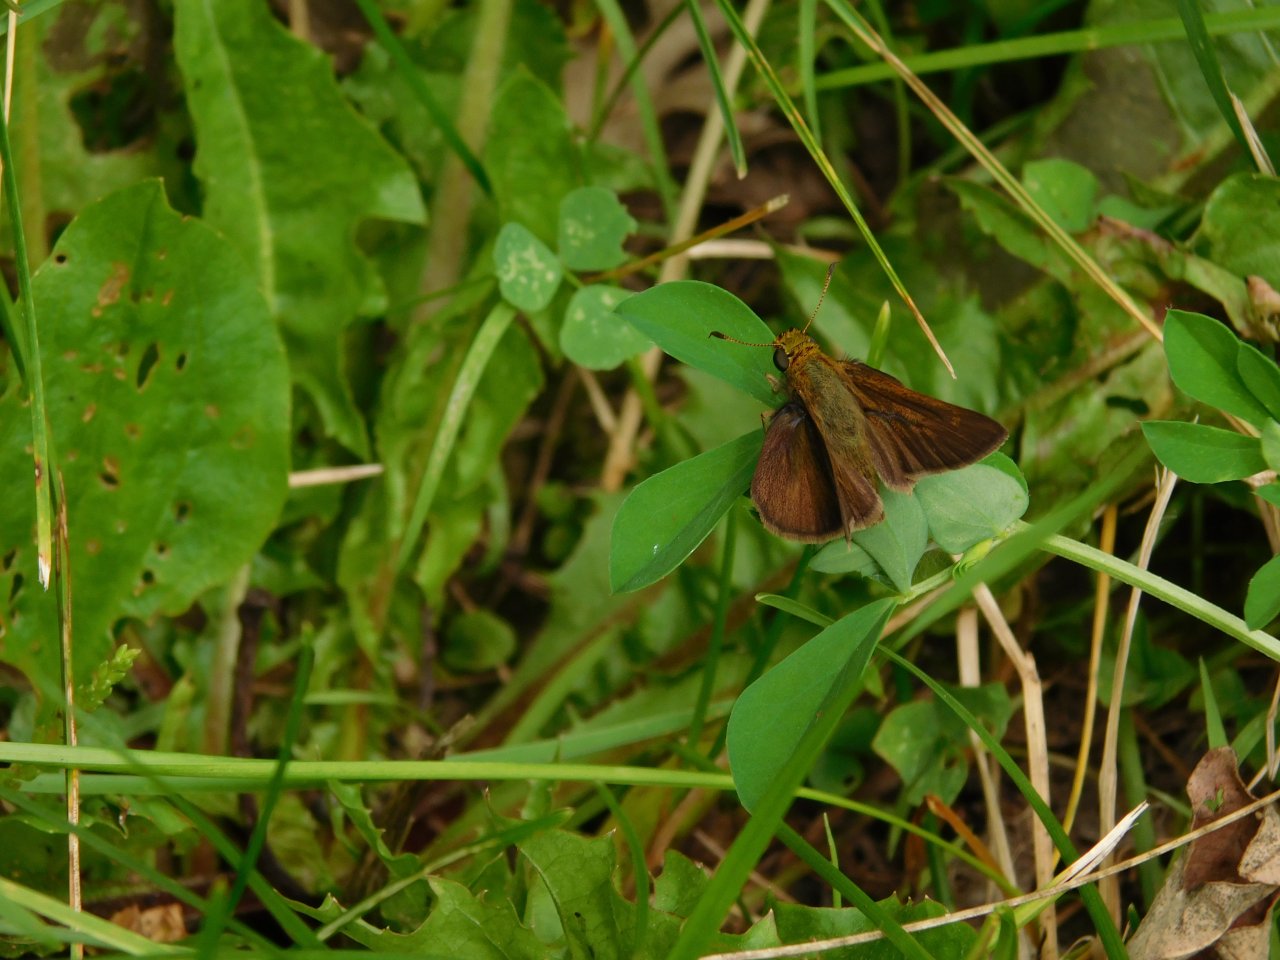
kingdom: Animalia
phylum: Arthropoda
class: Insecta
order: Lepidoptera
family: Hesperiidae
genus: Euphyes
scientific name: Euphyes vestris
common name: Dun Skipper
